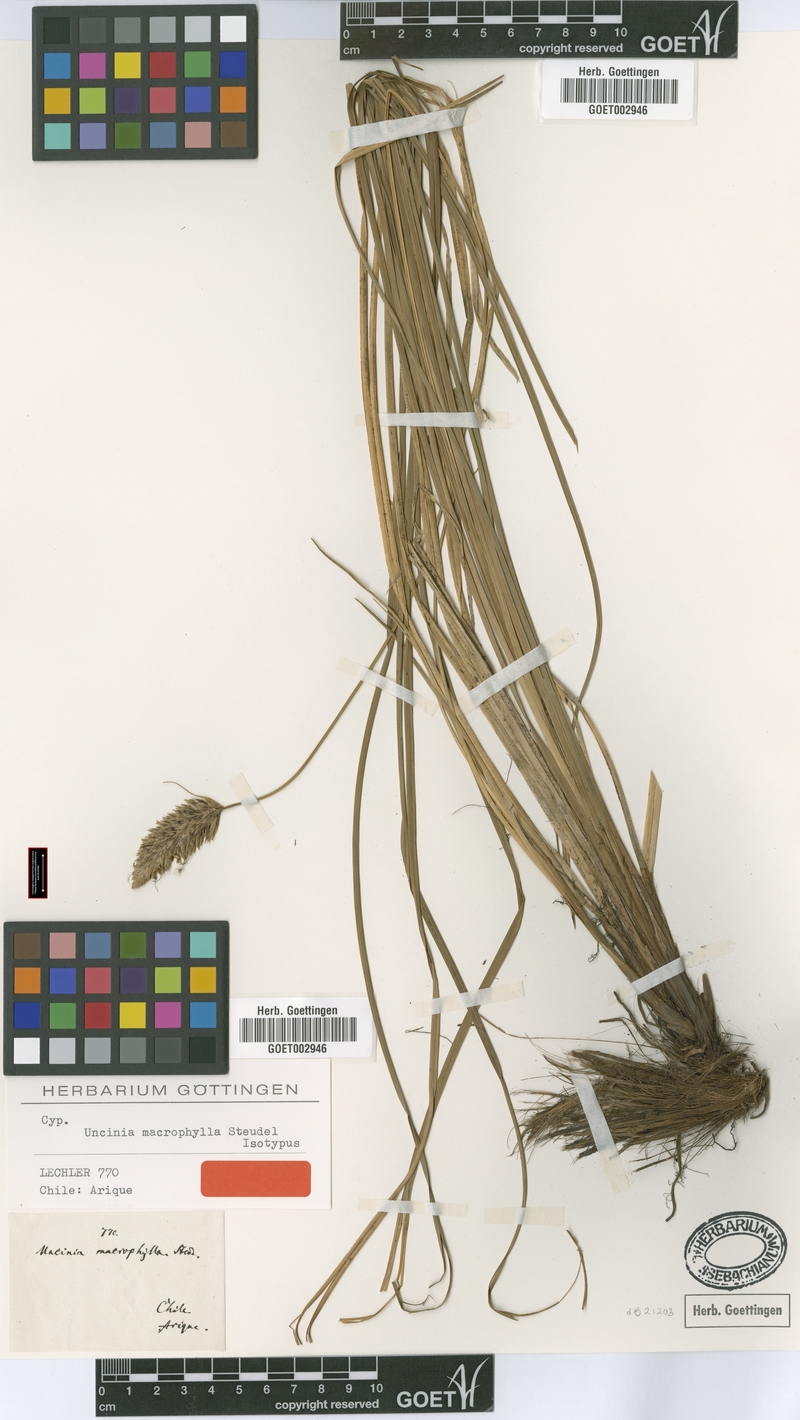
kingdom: Plantae
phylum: Tracheophyta
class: Liliopsida
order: Poales
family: Cyperaceae
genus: Carex
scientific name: Carex dolichophylla
